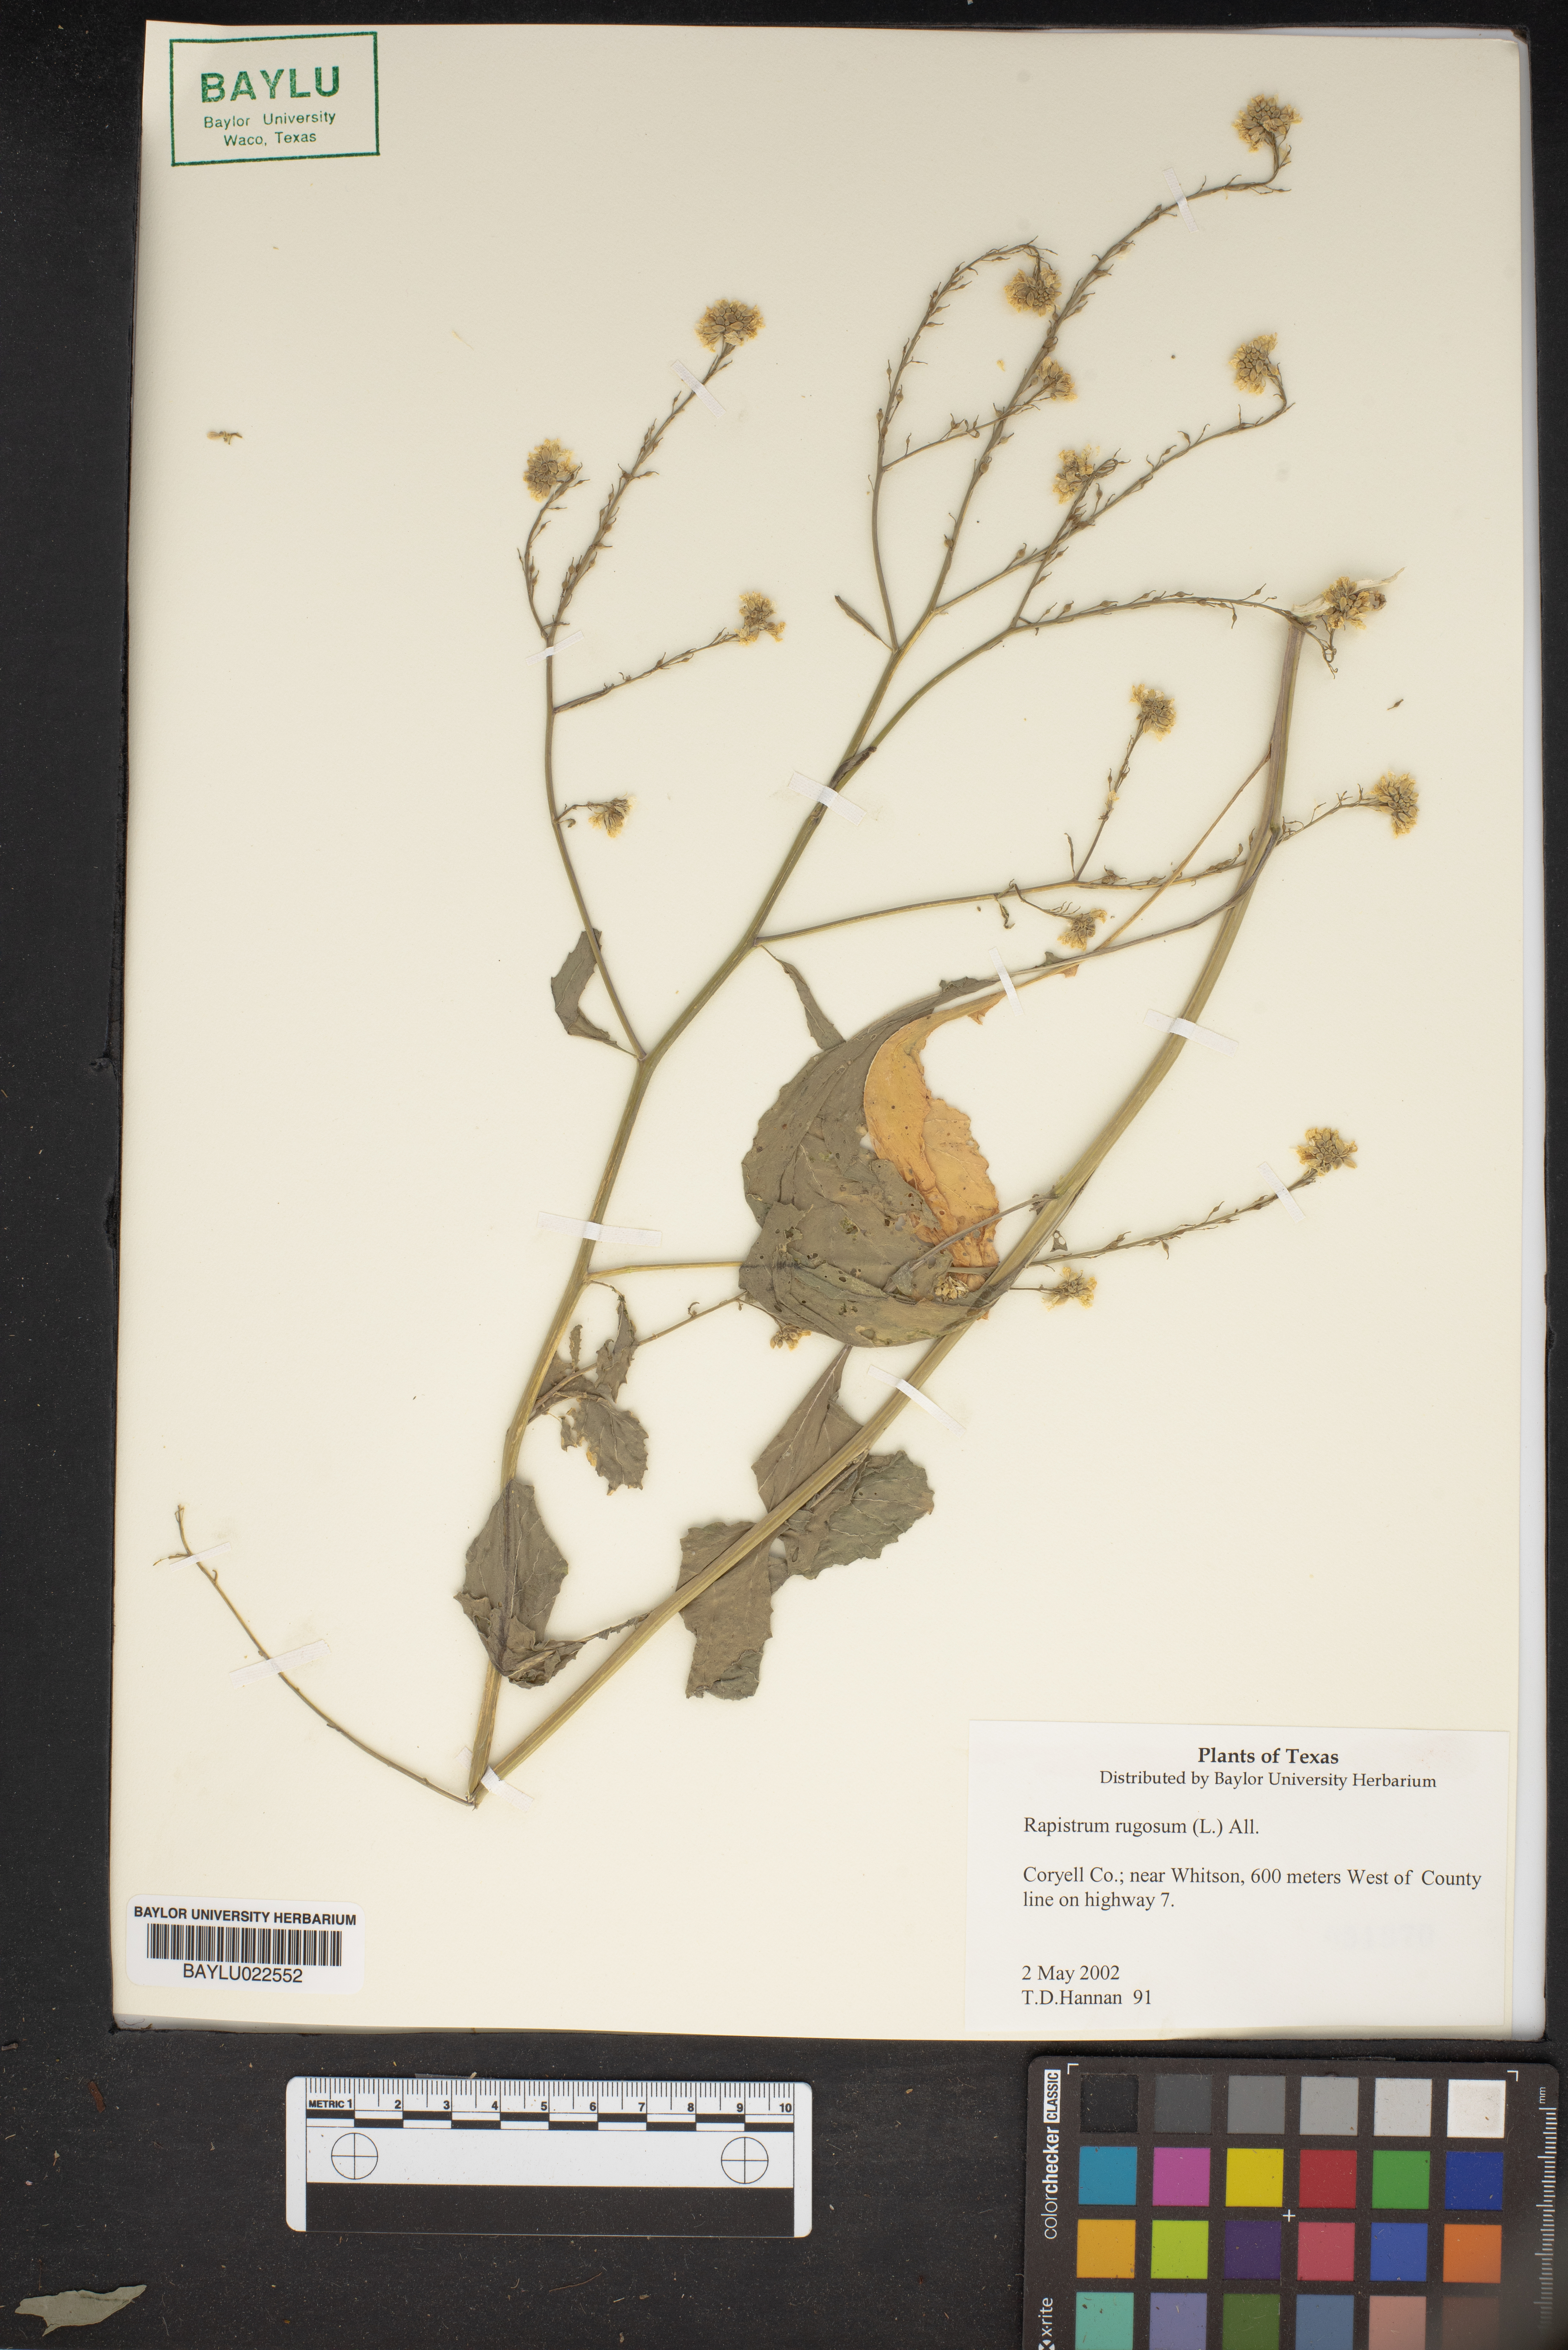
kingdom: Plantae
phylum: Tracheophyta
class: Magnoliopsida
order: Brassicales
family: Brassicaceae
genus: Rapistrum
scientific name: Rapistrum rugosum
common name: Annual bastardcabbage
